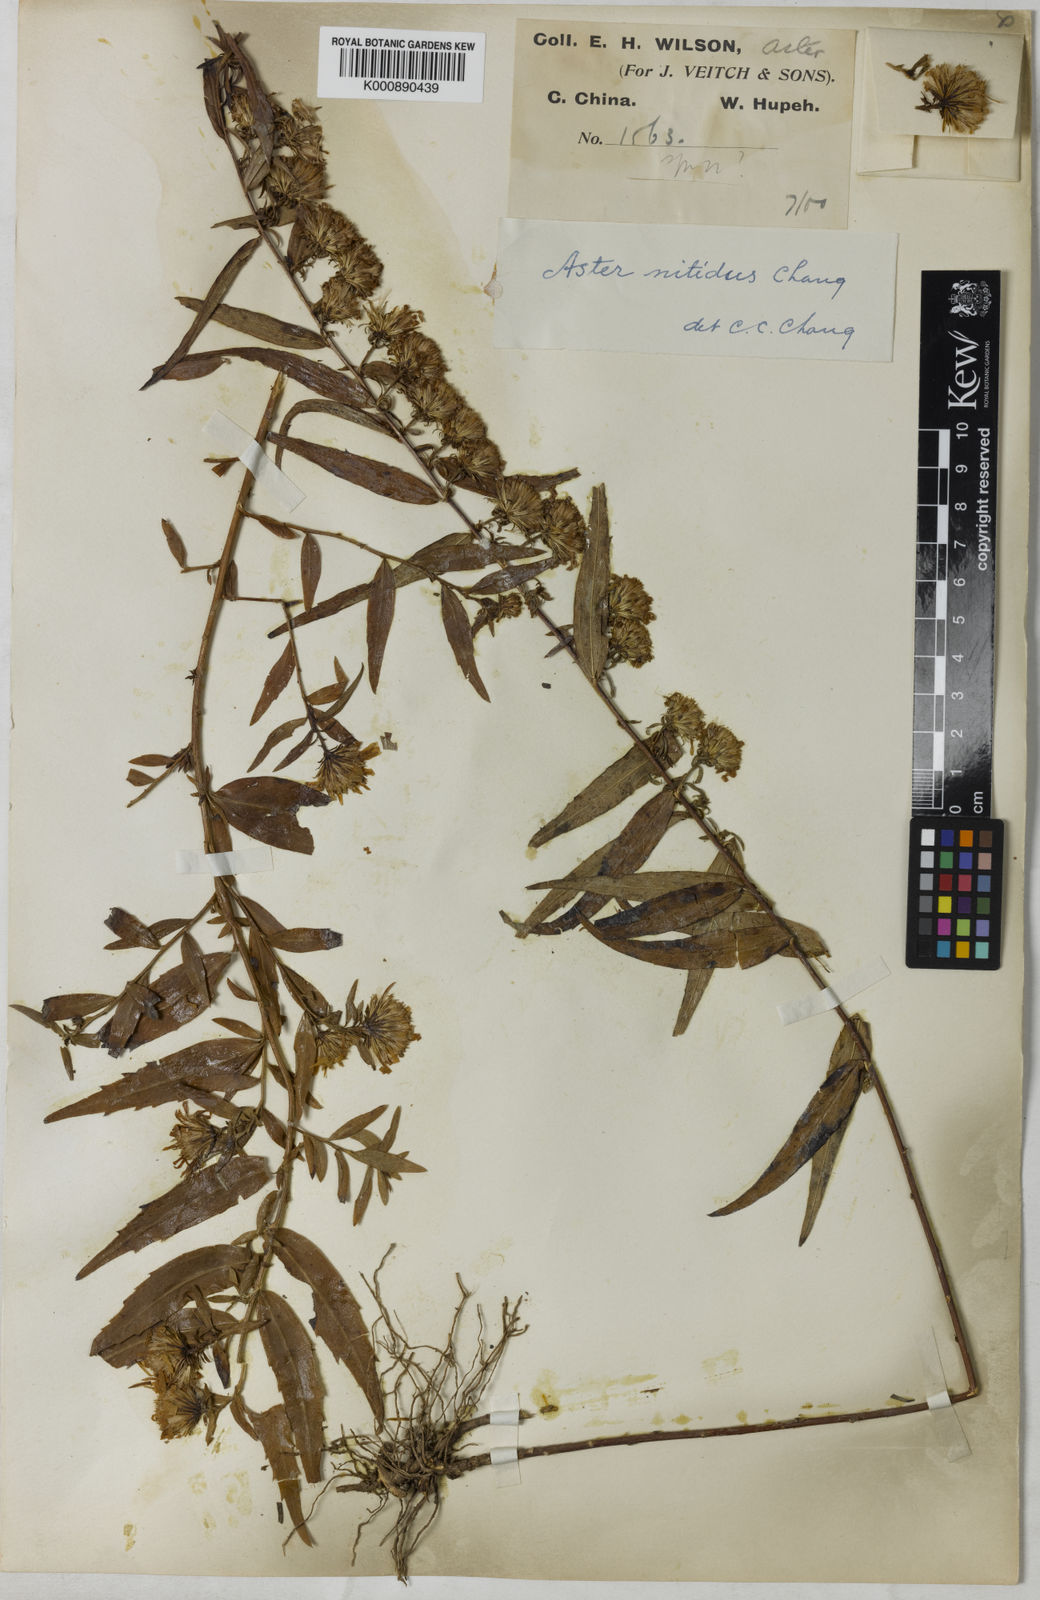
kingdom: Plantae
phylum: Tracheophyta
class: Magnoliopsida
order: Asterales
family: Asteraceae
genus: Yonglingia
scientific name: Yonglingia nitidus
